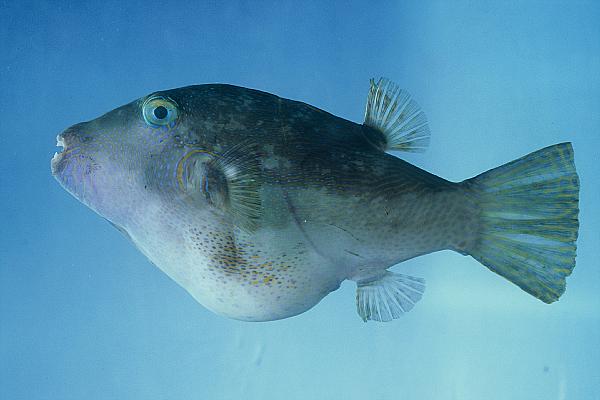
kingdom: Animalia
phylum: Chordata
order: Tetraodontiformes
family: Tetraodontidae
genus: Canthigaster
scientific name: Canthigaster rivulata
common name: Brown-lined puffer
